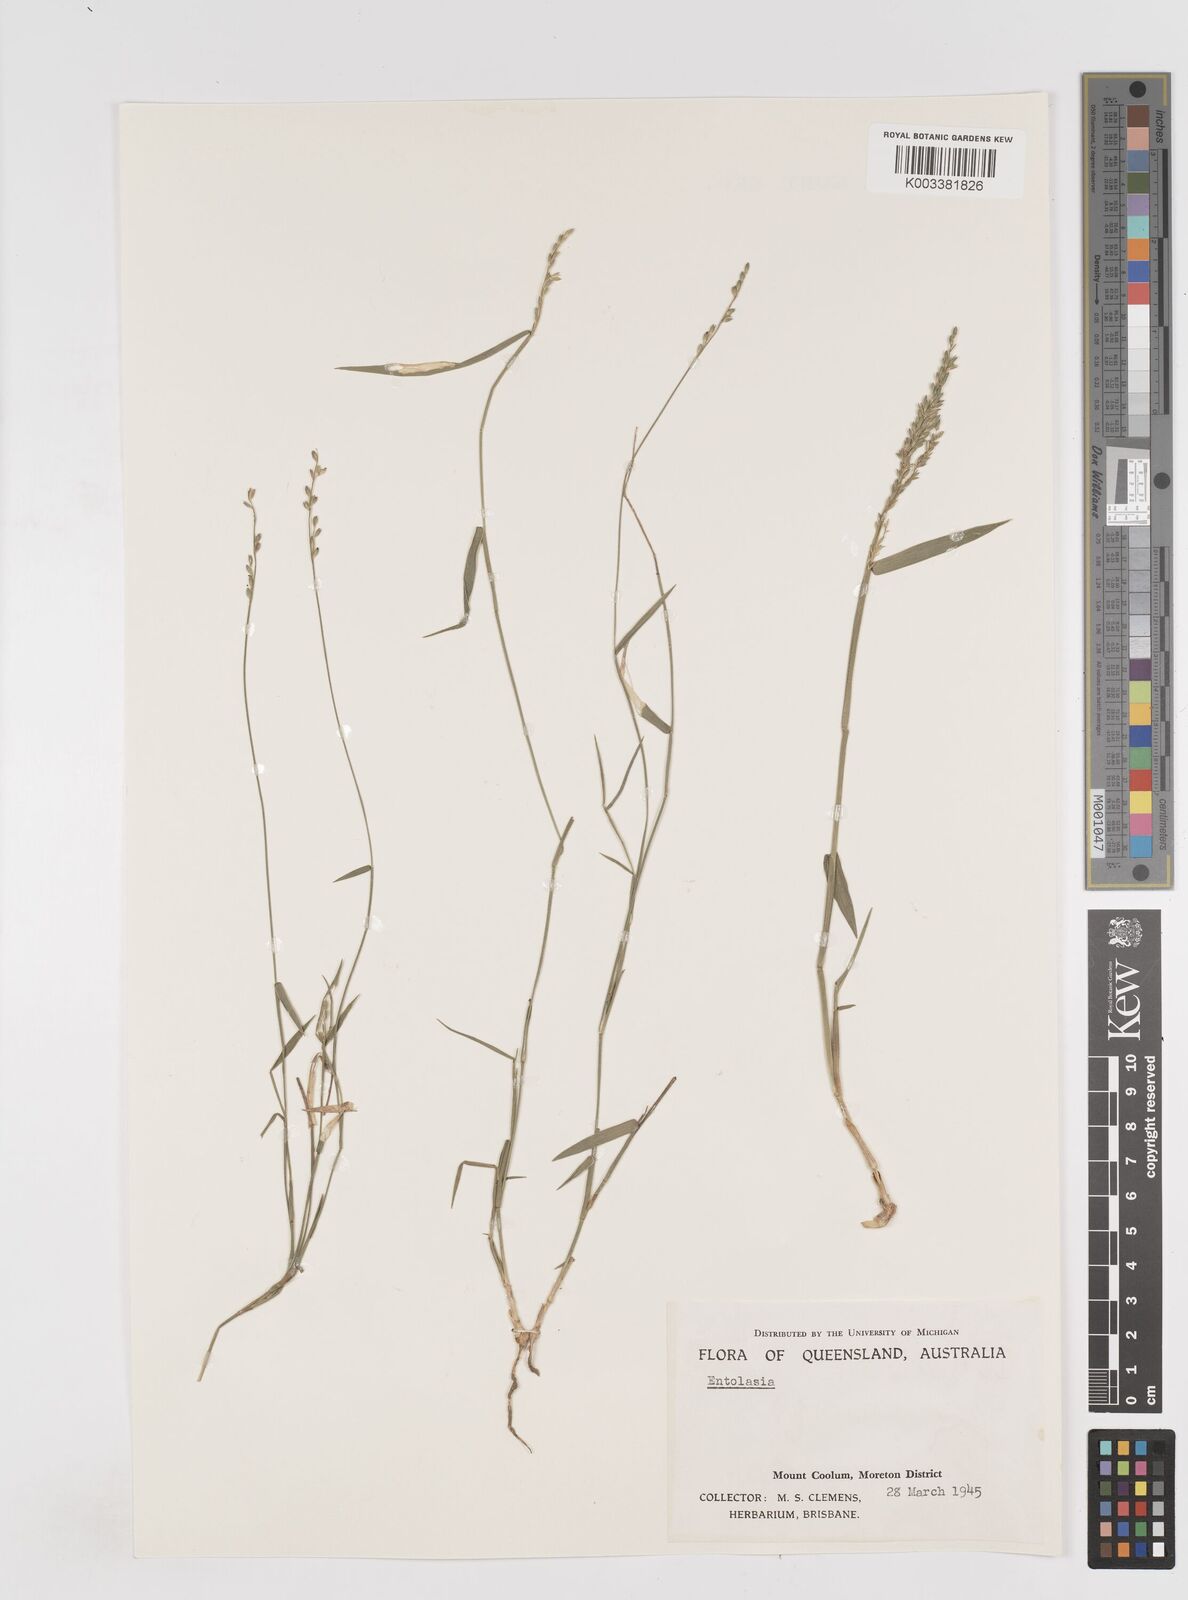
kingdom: Plantae
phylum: Tracheophyta
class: Liliopsida
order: Poales
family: Poaceae
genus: Entolasia
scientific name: Entolasia
